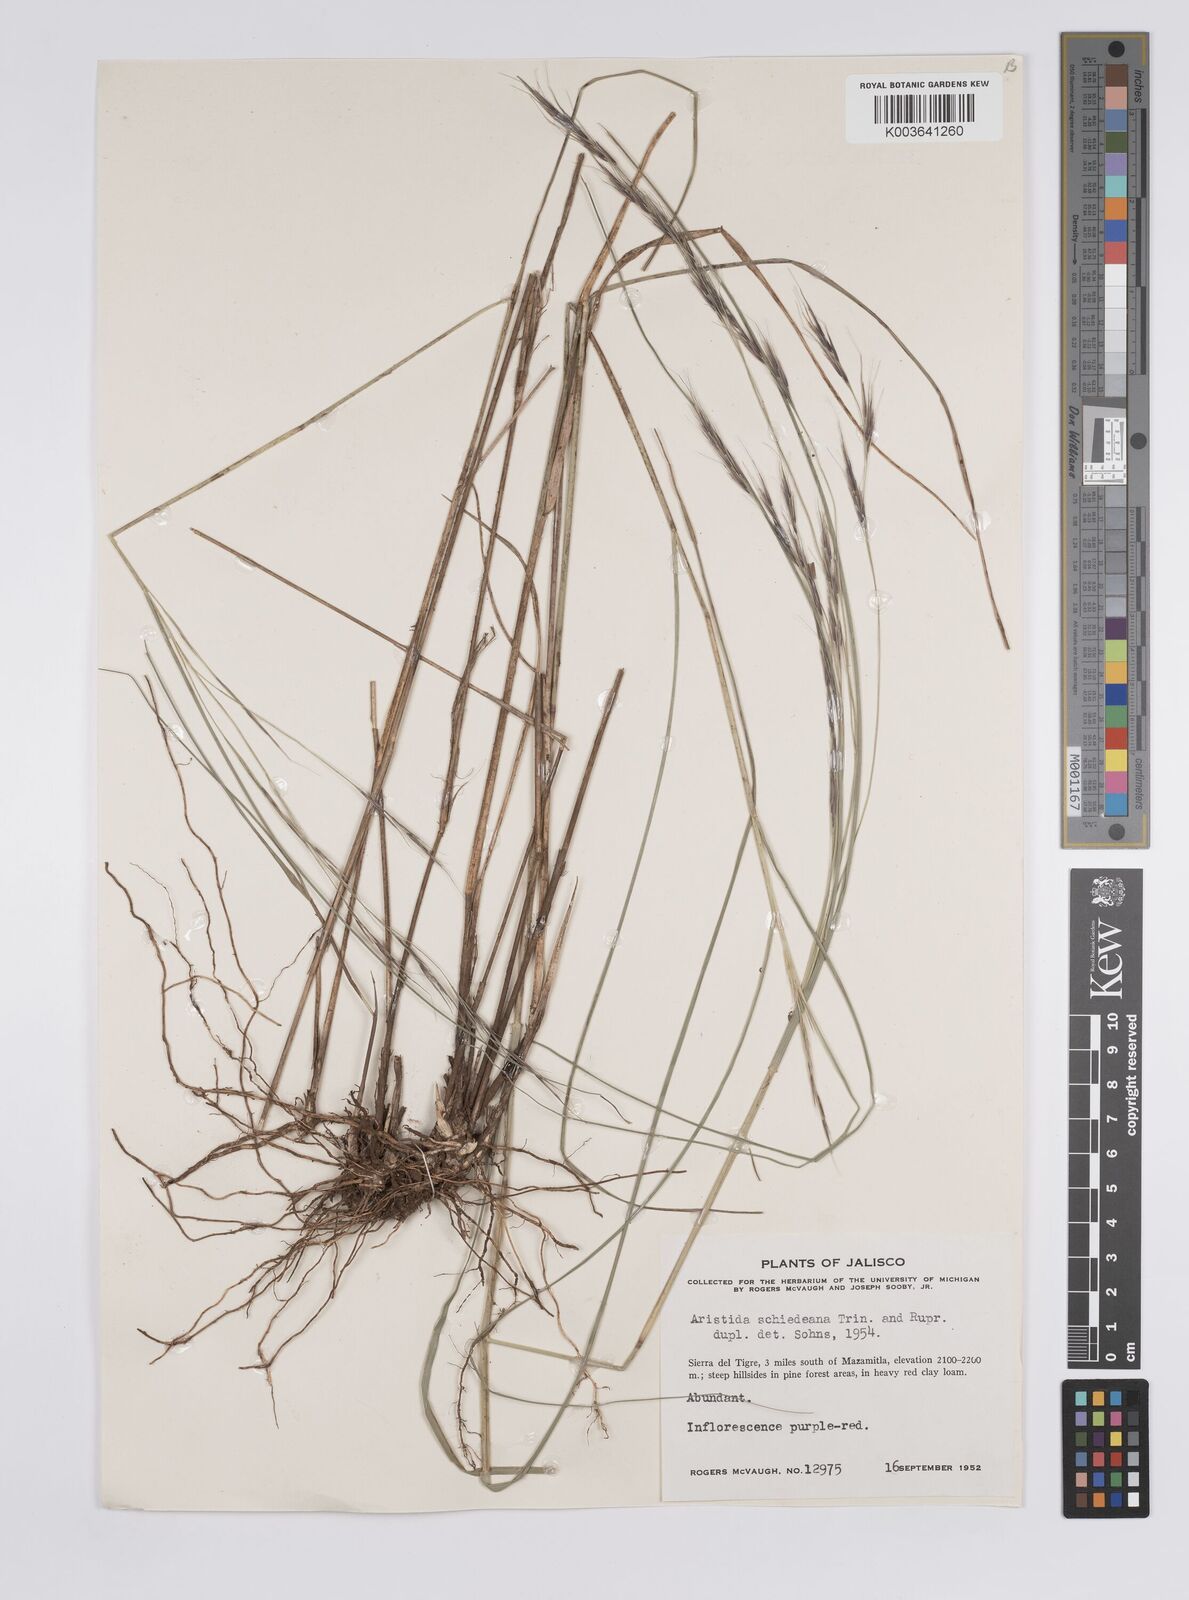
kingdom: Plantae
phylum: Tracheophyta
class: Liliopsida
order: Poales
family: Poaceae
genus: Aristida
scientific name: Aristida schiedeana
